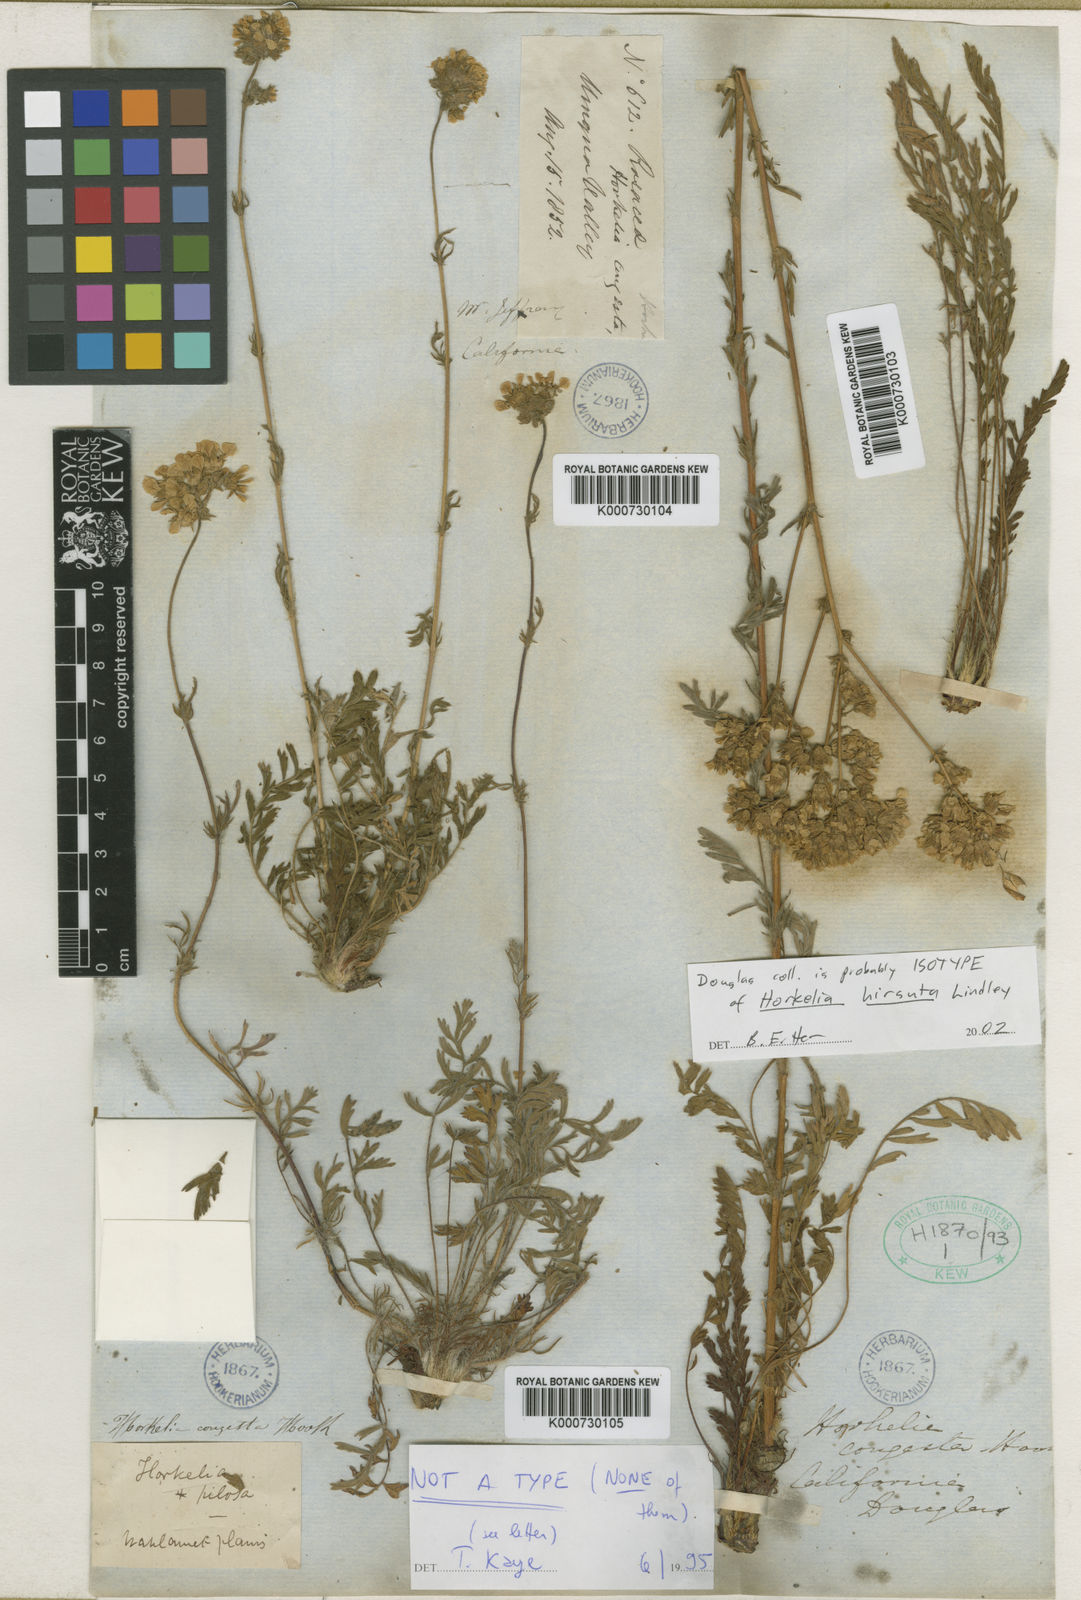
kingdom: Plantae
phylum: Tracheophyta
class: Magnoliopsida
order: Rosales
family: Rosaceae
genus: Potentilla
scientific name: Potentilla congesta
